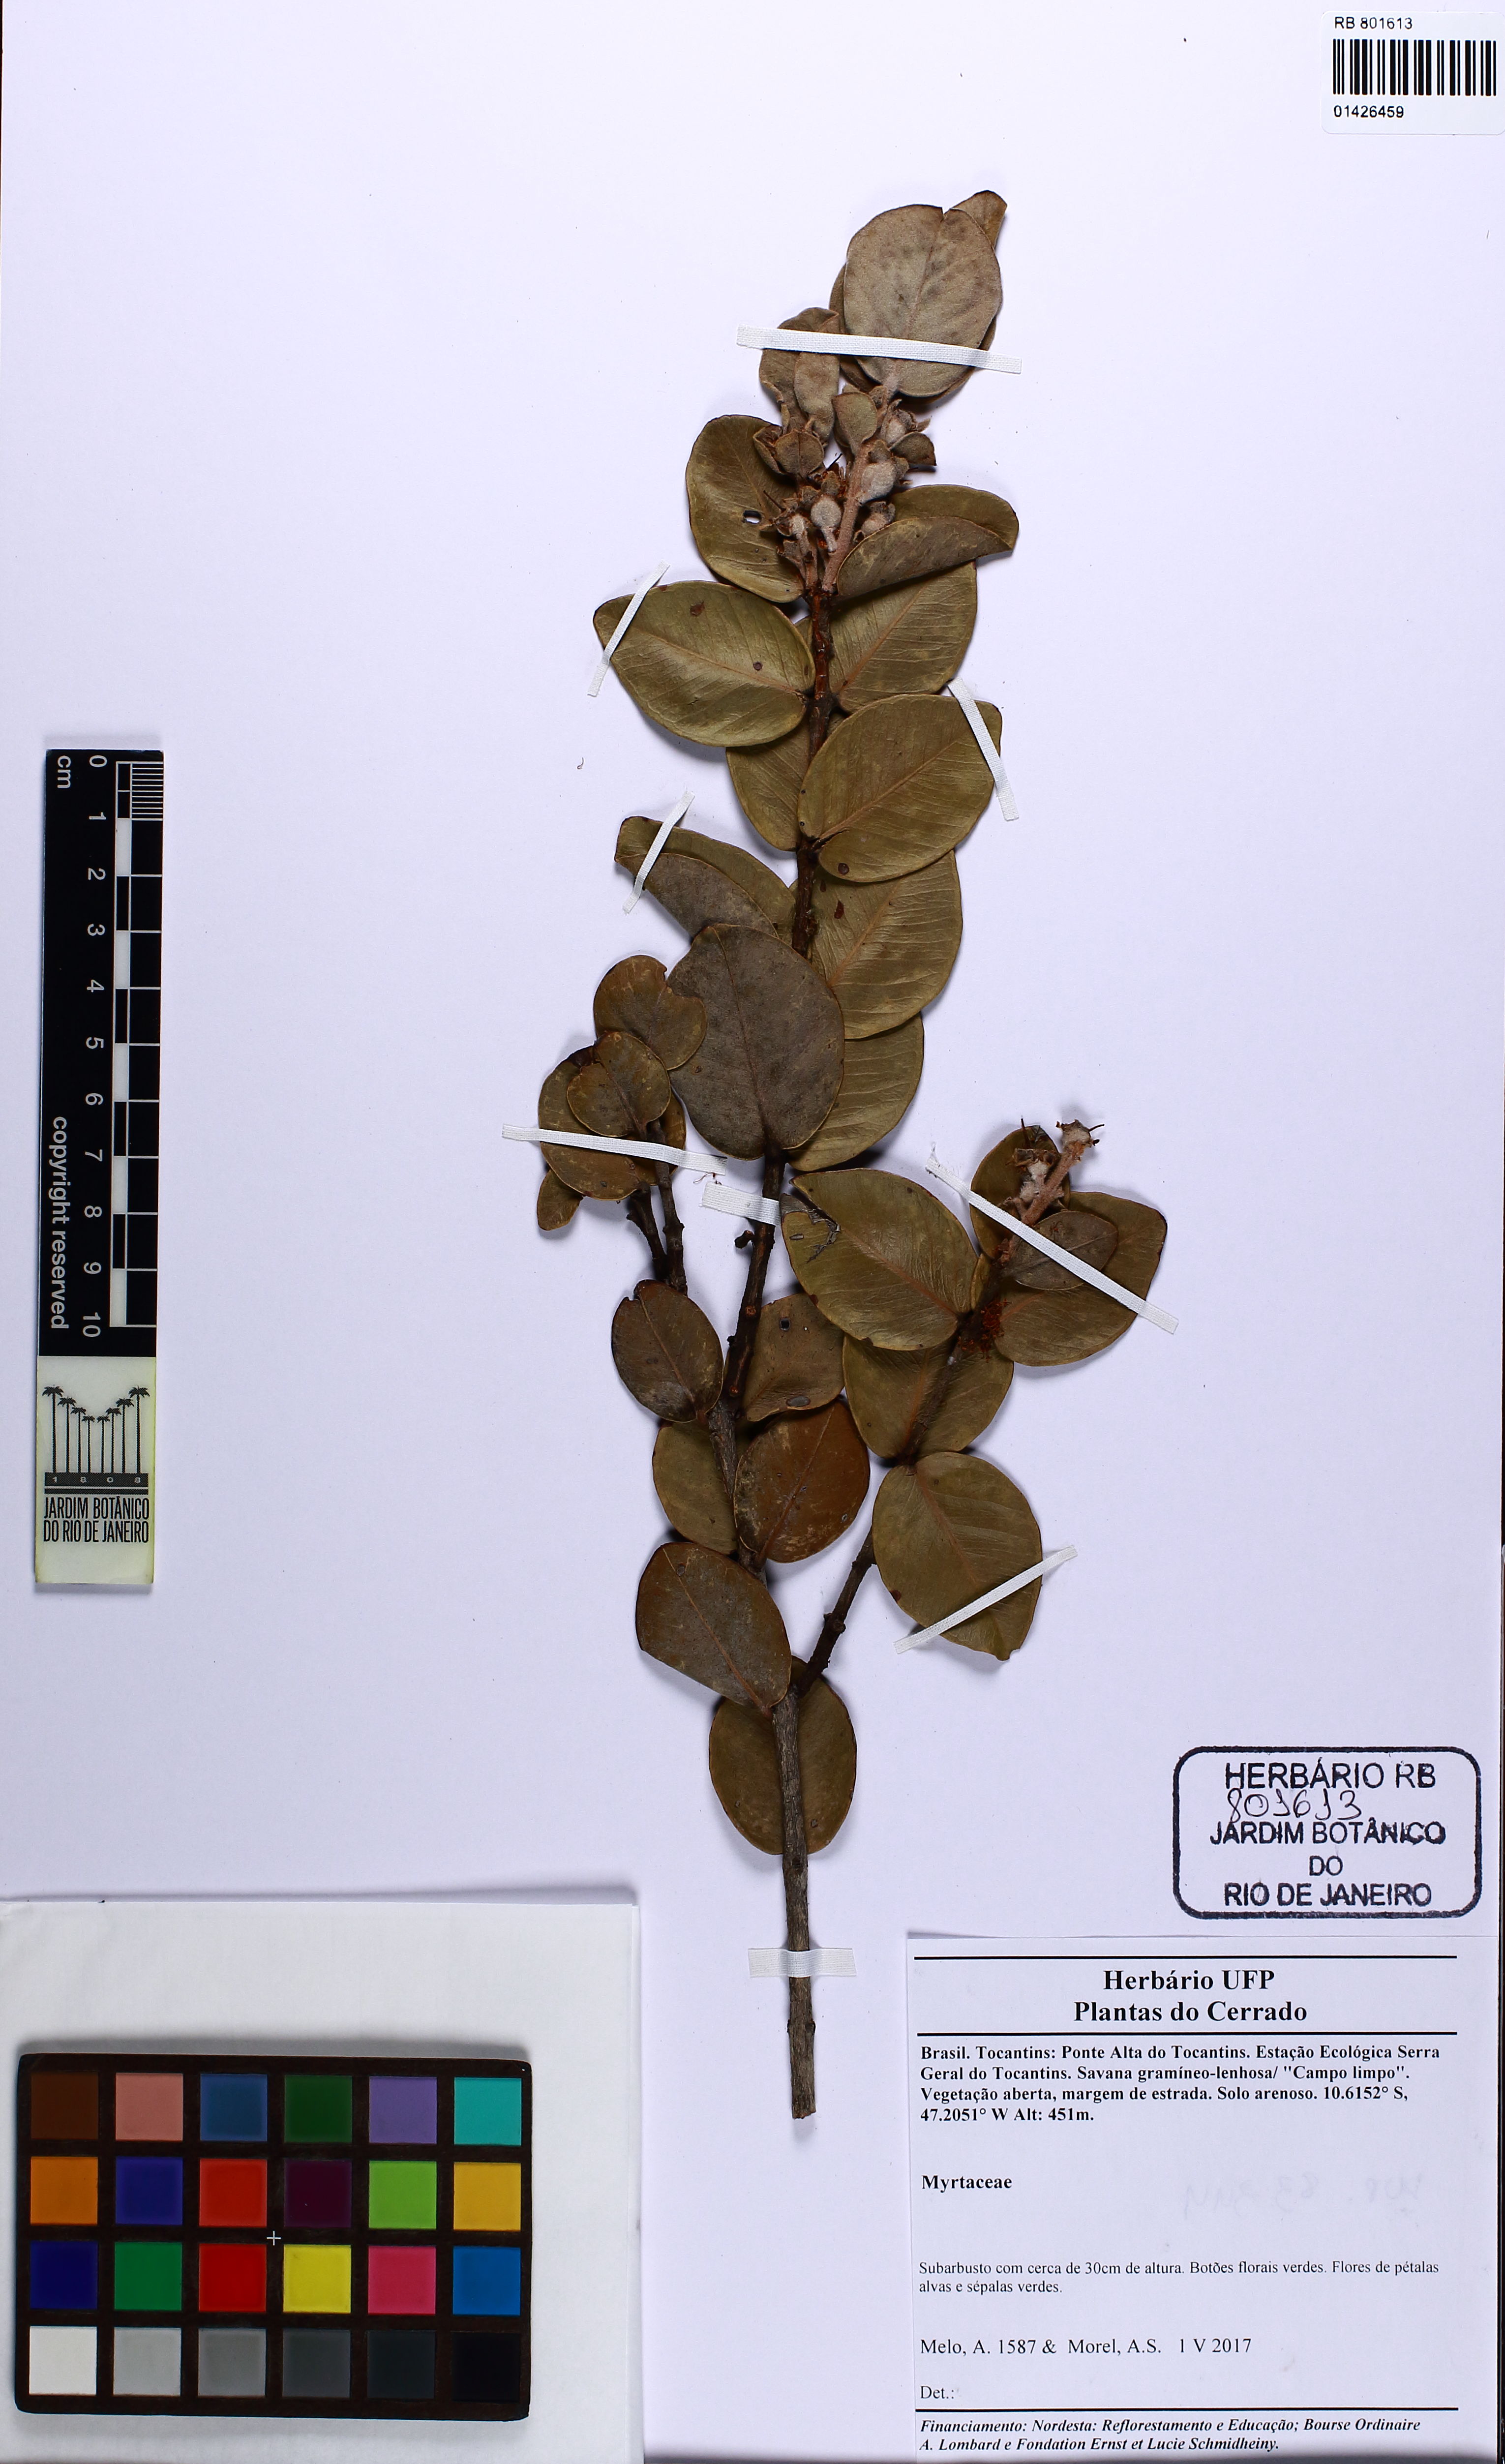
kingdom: Plantae
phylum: Tracheophyta
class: Magnoliopsida
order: Myrtales
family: Myrtaceae
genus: Myrcia
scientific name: Myrcia
